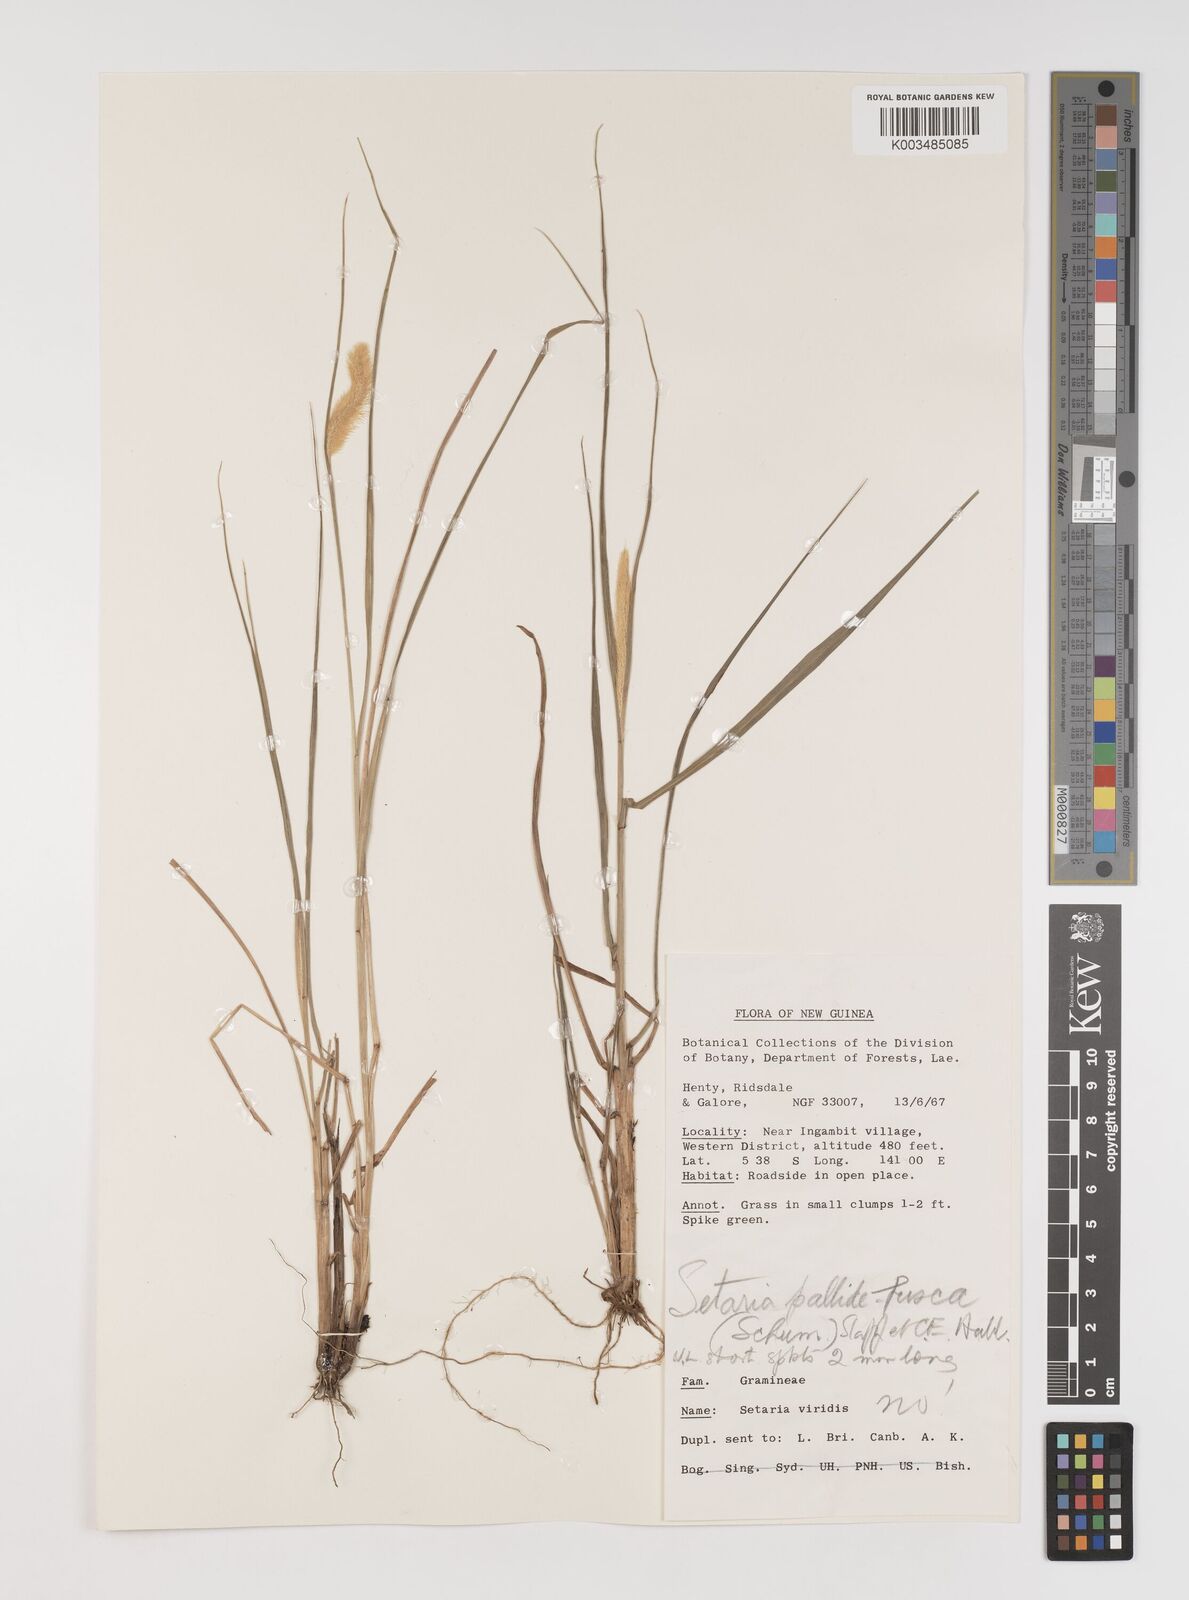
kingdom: Plantae
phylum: Tracheophyta
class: Liliopsida
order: Poales
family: Poaceae
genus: Setaria
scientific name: Setaria parviflora
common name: Knotroot bristle-grass
